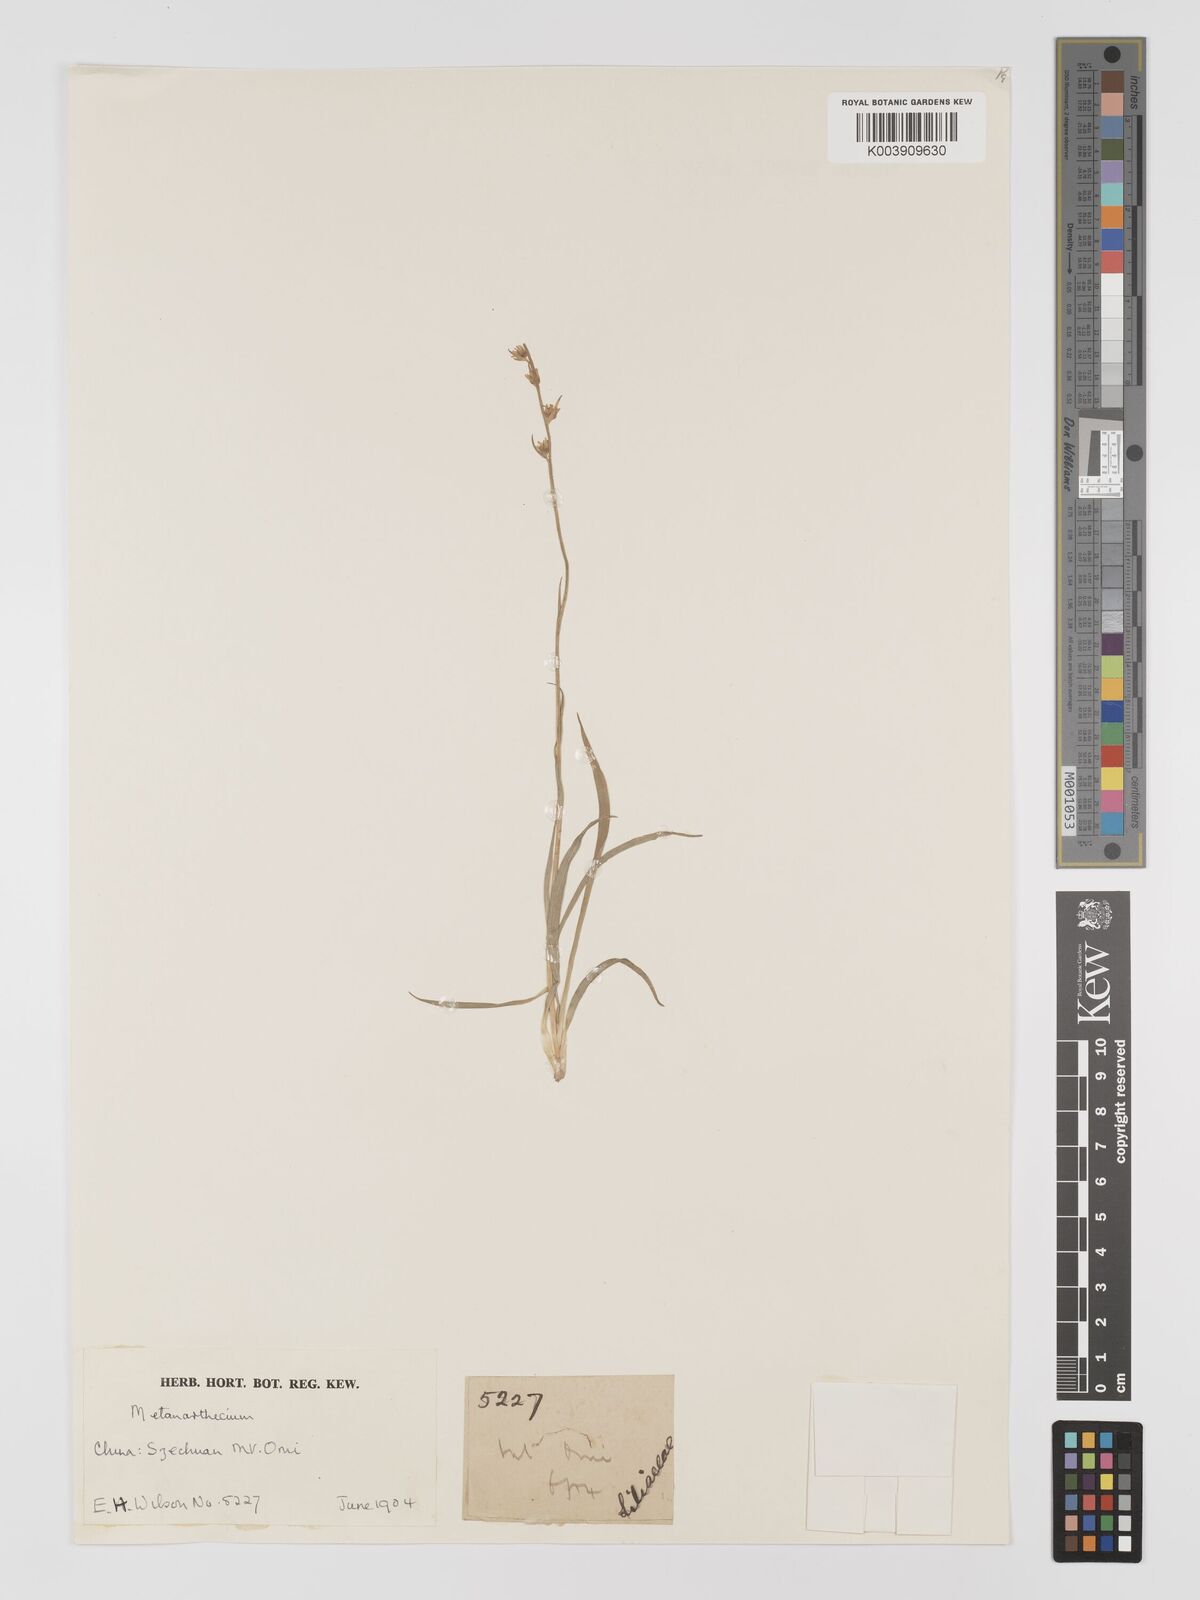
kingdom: Plantae
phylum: Tracheophyta
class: Liliopsida
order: Dioscoreales
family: Nartheciaceae
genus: Metanarthecium
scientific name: Metanarthecium
